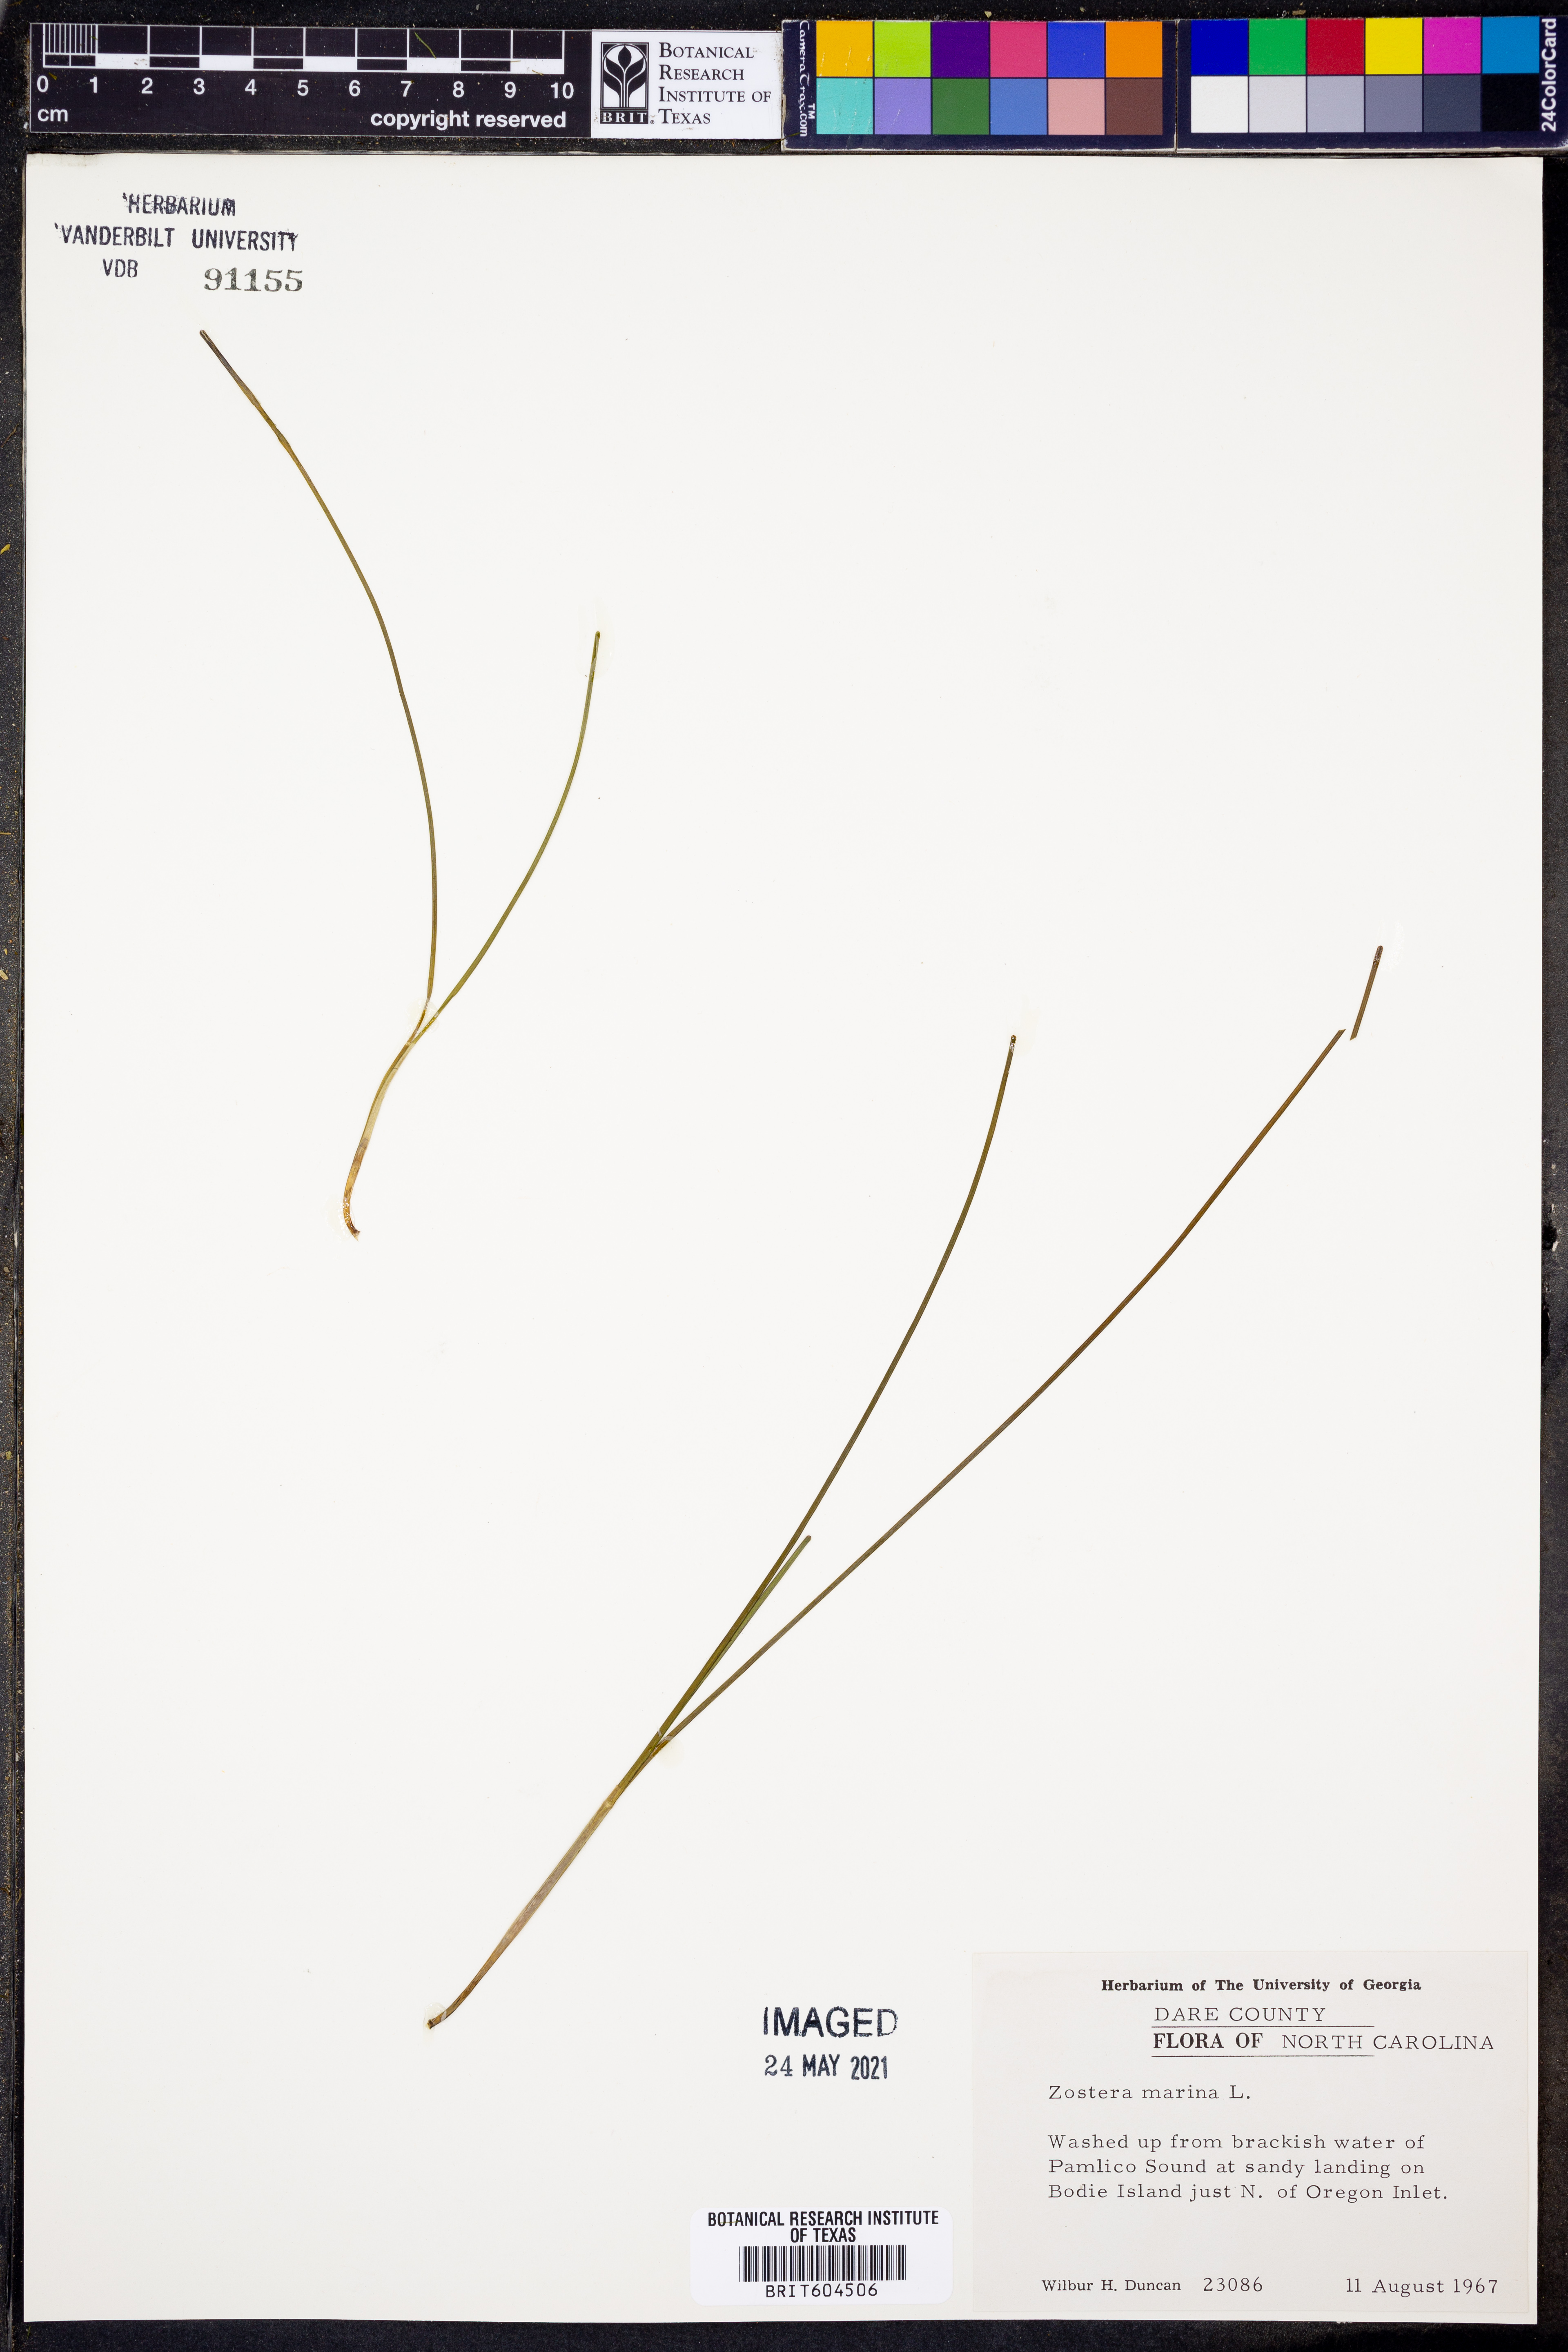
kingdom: Plantae
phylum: Tracheophyta
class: Liliopsida
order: Alismatales
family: Zosteraceae
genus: Zostera
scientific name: Zostera marina
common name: Eelgrass
